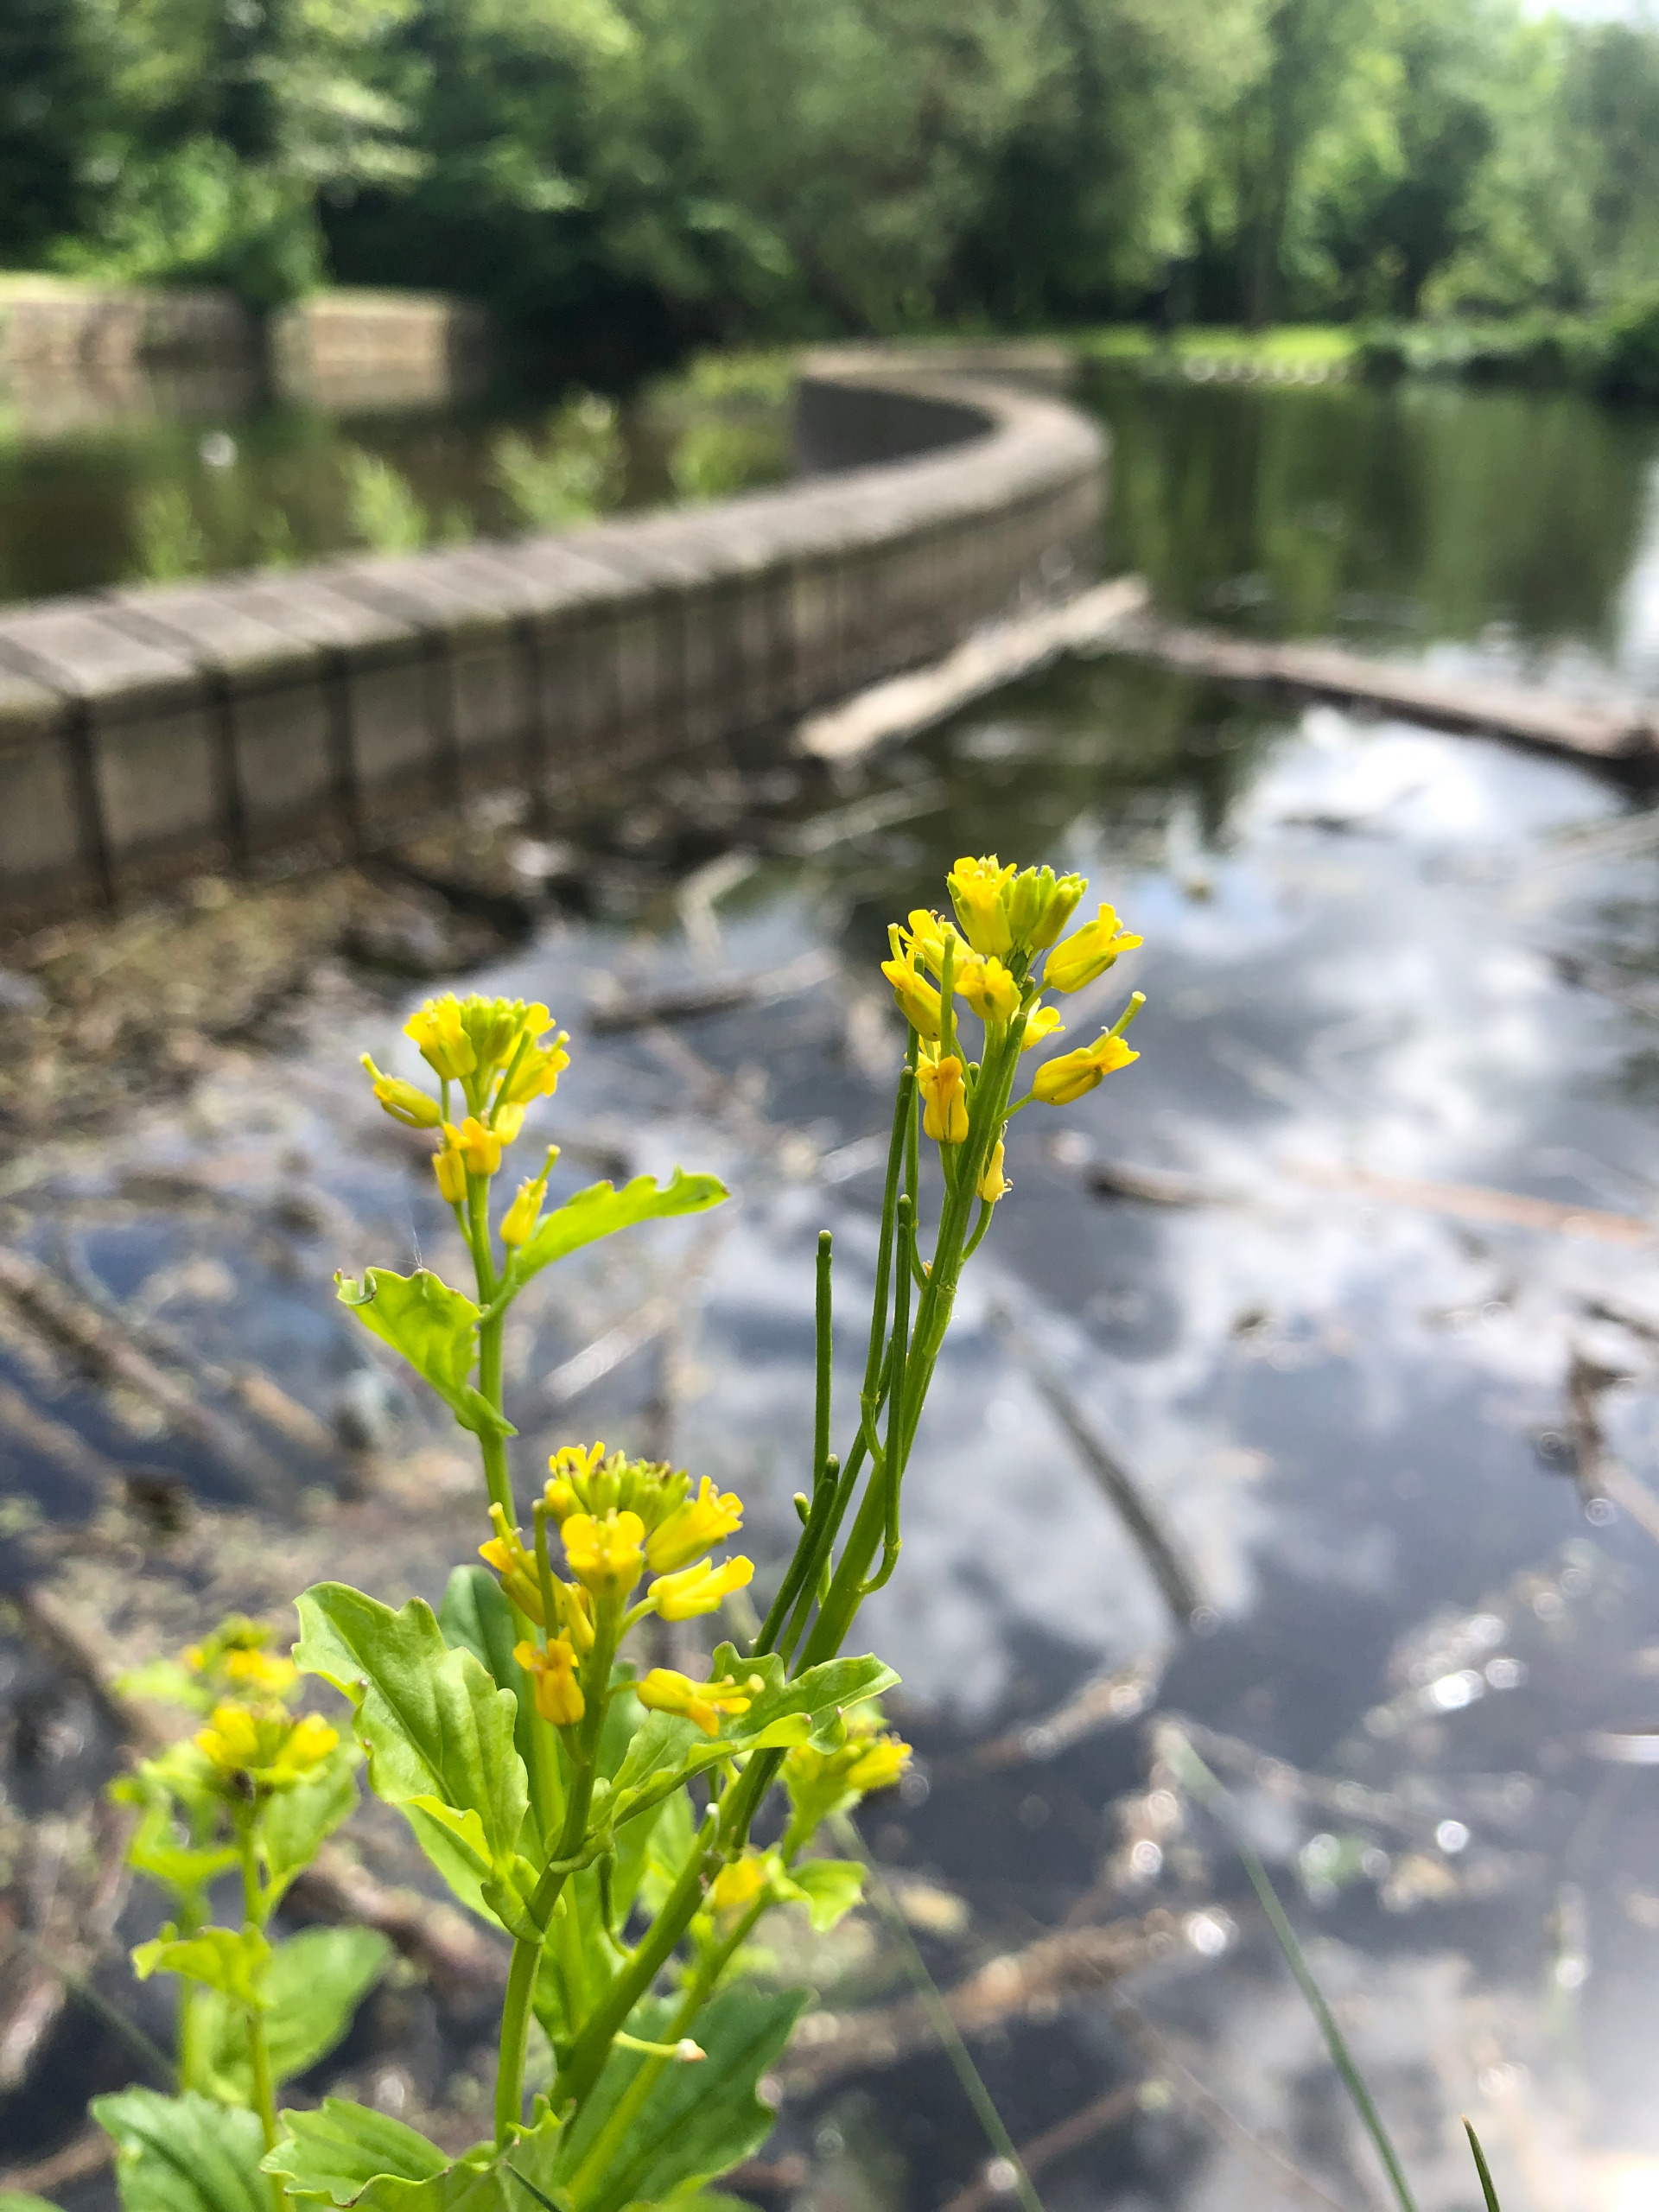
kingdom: Plantae
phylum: Tracheophyta
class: Magnoliopsida
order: Brassicales
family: Brassicaceae
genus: Barbarea
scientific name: Barbarea vulgaris
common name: Almindelig vinterkarse (varietet)
